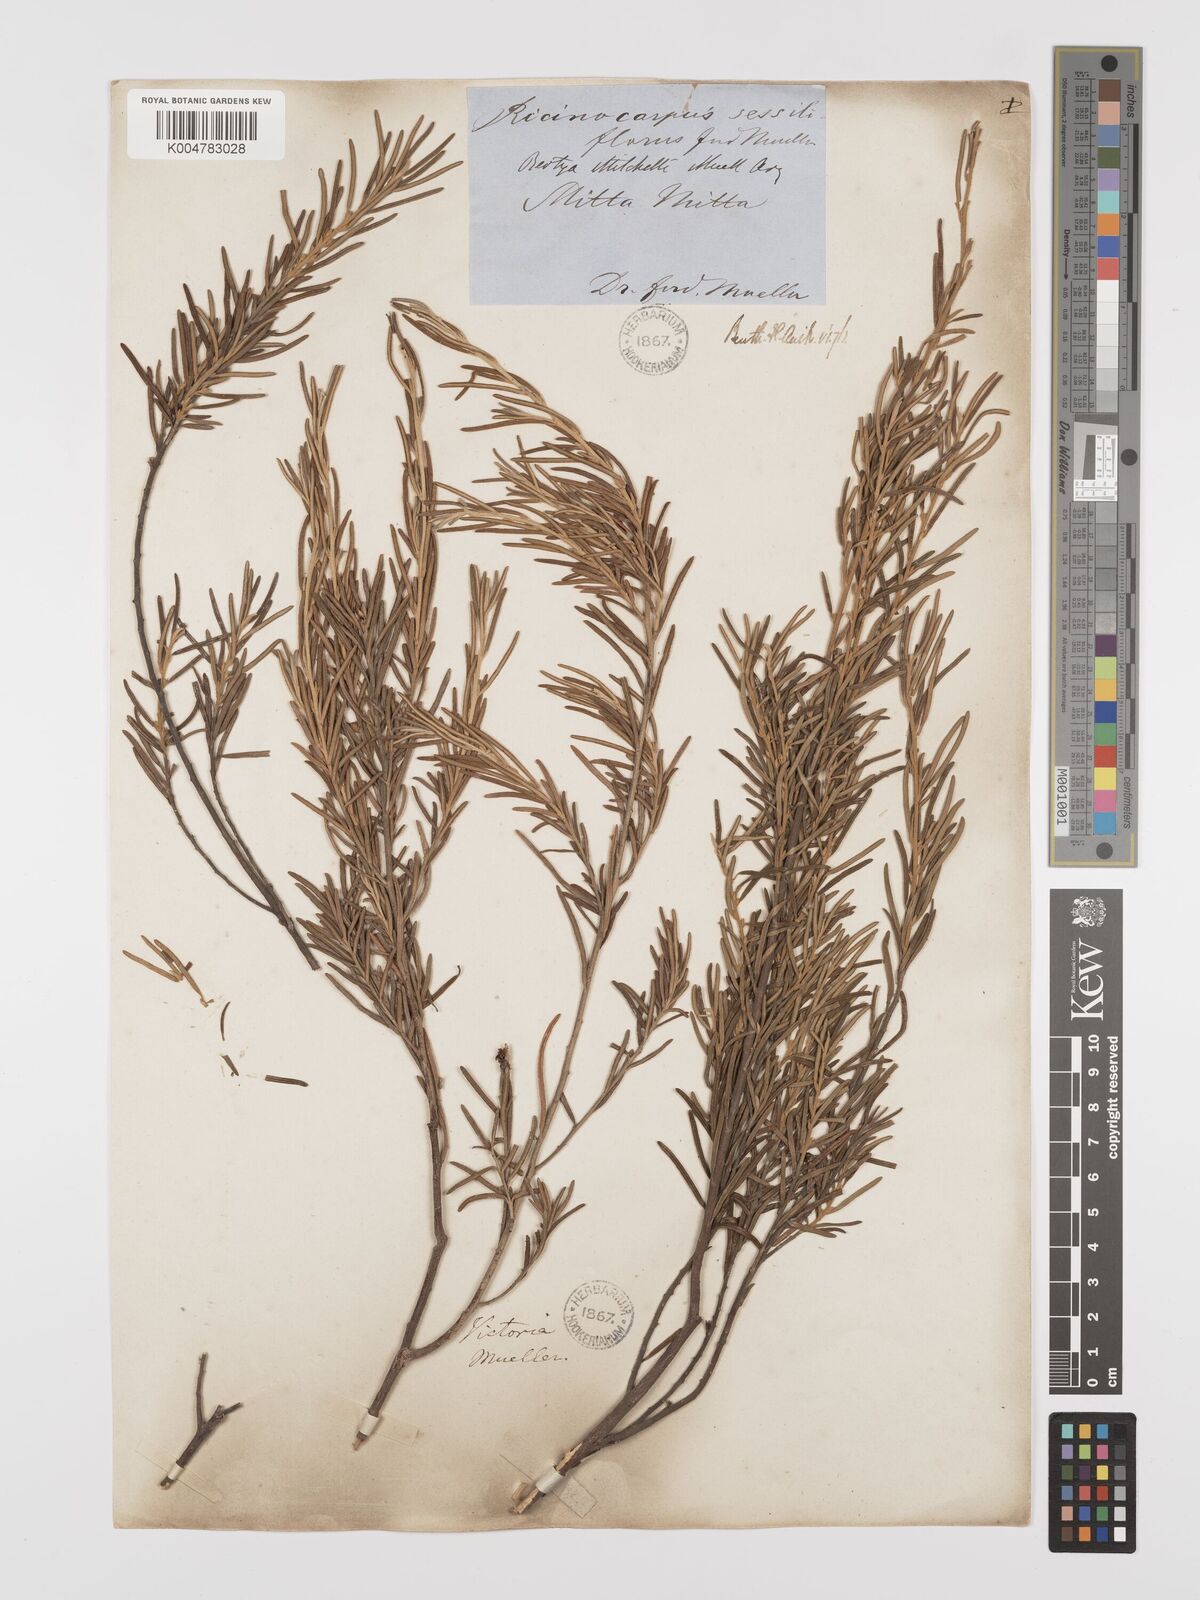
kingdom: Plantae
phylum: Tracheophyta
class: Magnoliopsida
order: Malpighiales
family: Euphorbiaceae
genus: Bertya
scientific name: Bertya oleifolia
